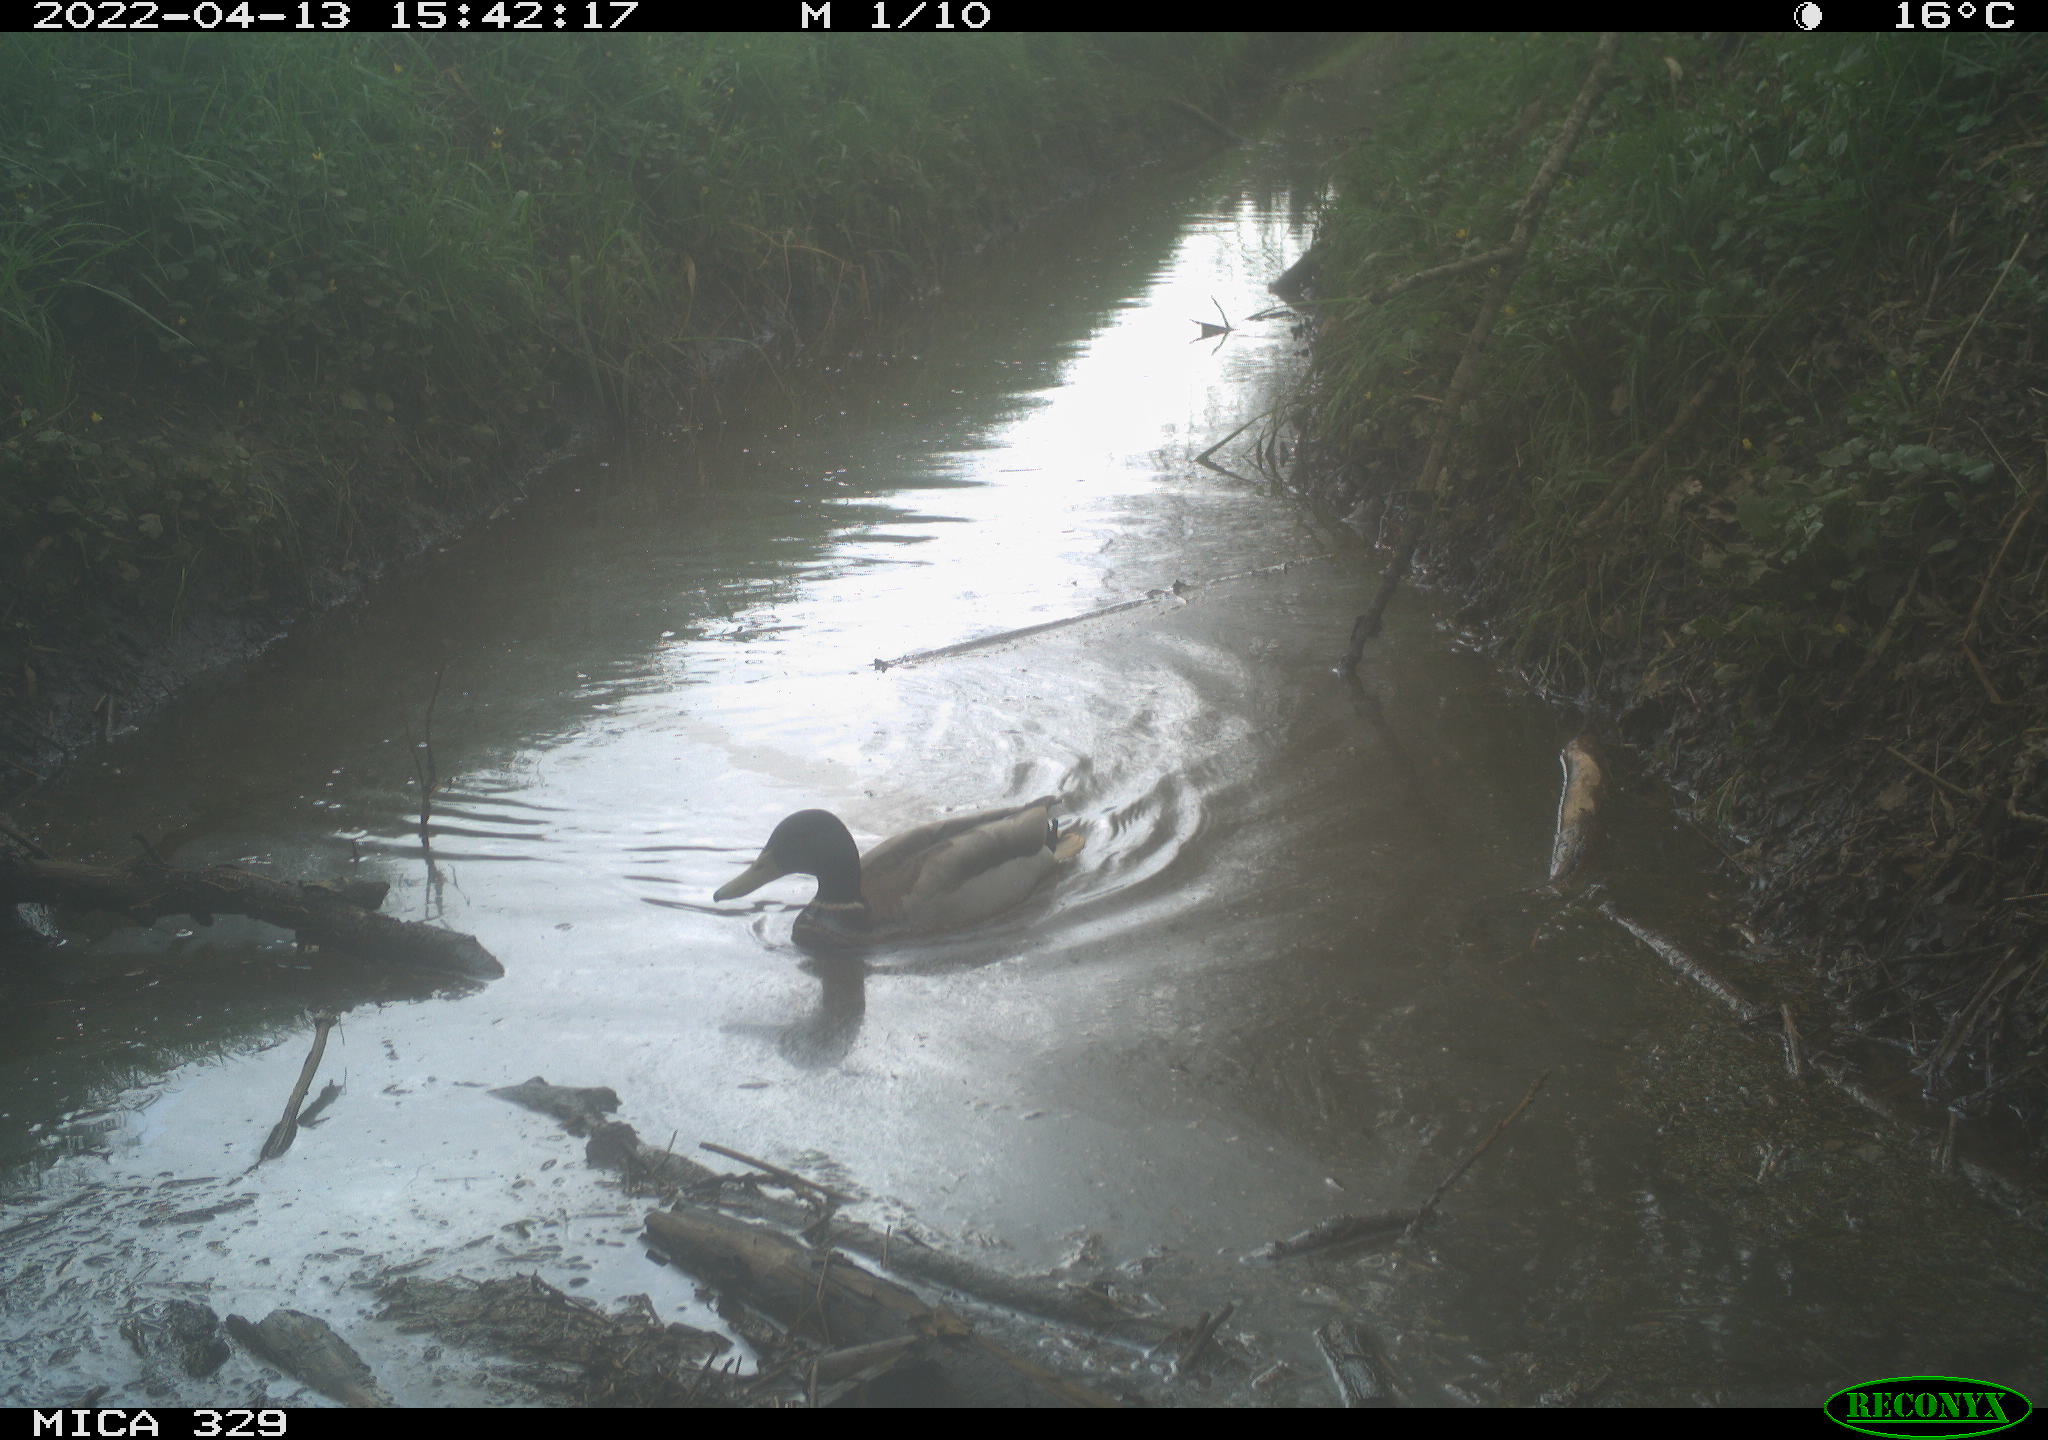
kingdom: Animalia
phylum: Chordata
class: Aves
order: Anseriformes
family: Anatidae
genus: Anas
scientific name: Anas platyrhynchos
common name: Mallard
